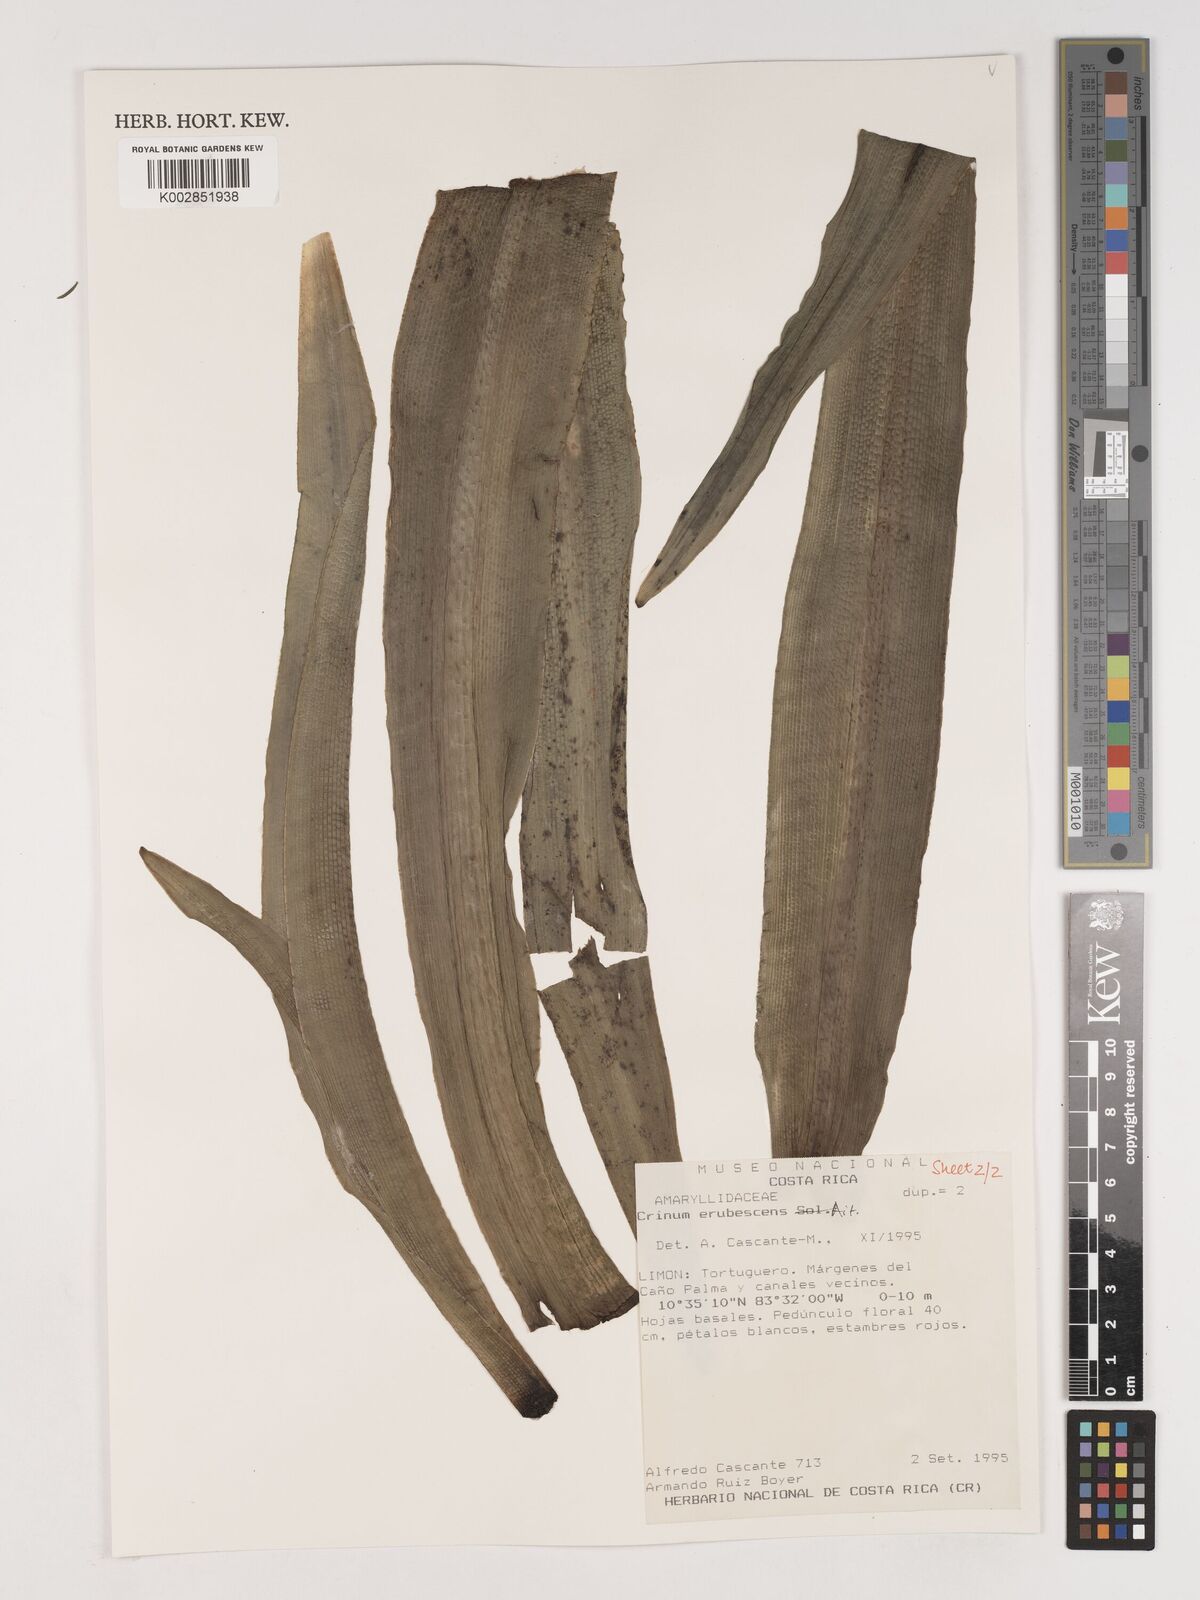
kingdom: Plantae
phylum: Tracheophyta
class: Liliopsida
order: Asparagales
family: Amaryllidaceae
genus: Crinum
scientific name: Crinum kunthianum
